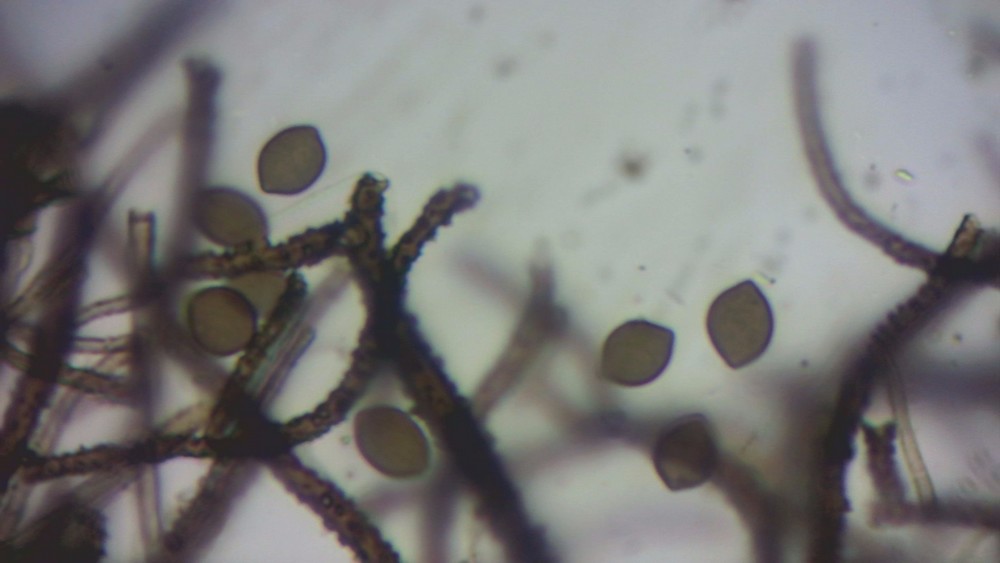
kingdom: Fungi
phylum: Ascomycota
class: Sordariomycetes
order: Sordariales
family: Chaetomiaceae
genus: Chaetomium
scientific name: Chaetomium elatum
